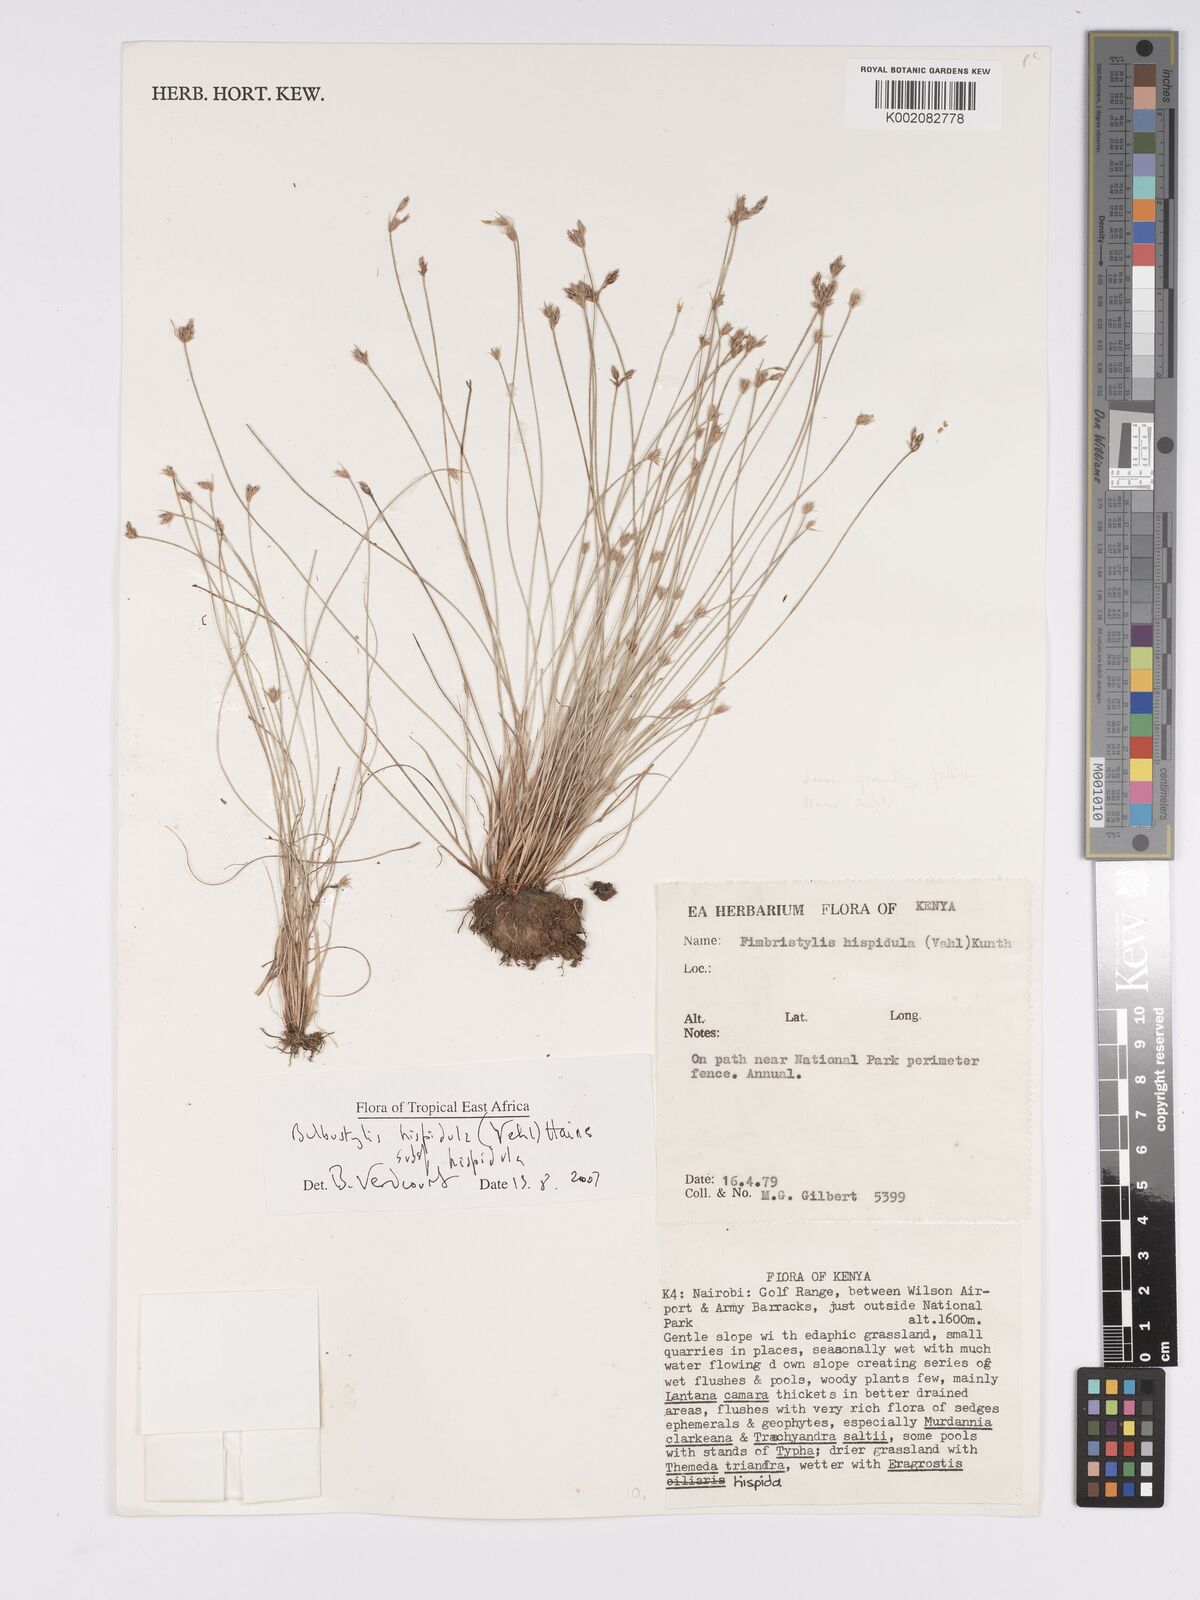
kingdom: Plantae
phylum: Tracheophyta
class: Liliopsida
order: Poales
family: Cyperaceae
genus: Bulbostylis
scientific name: Bulbostylis hispidula
